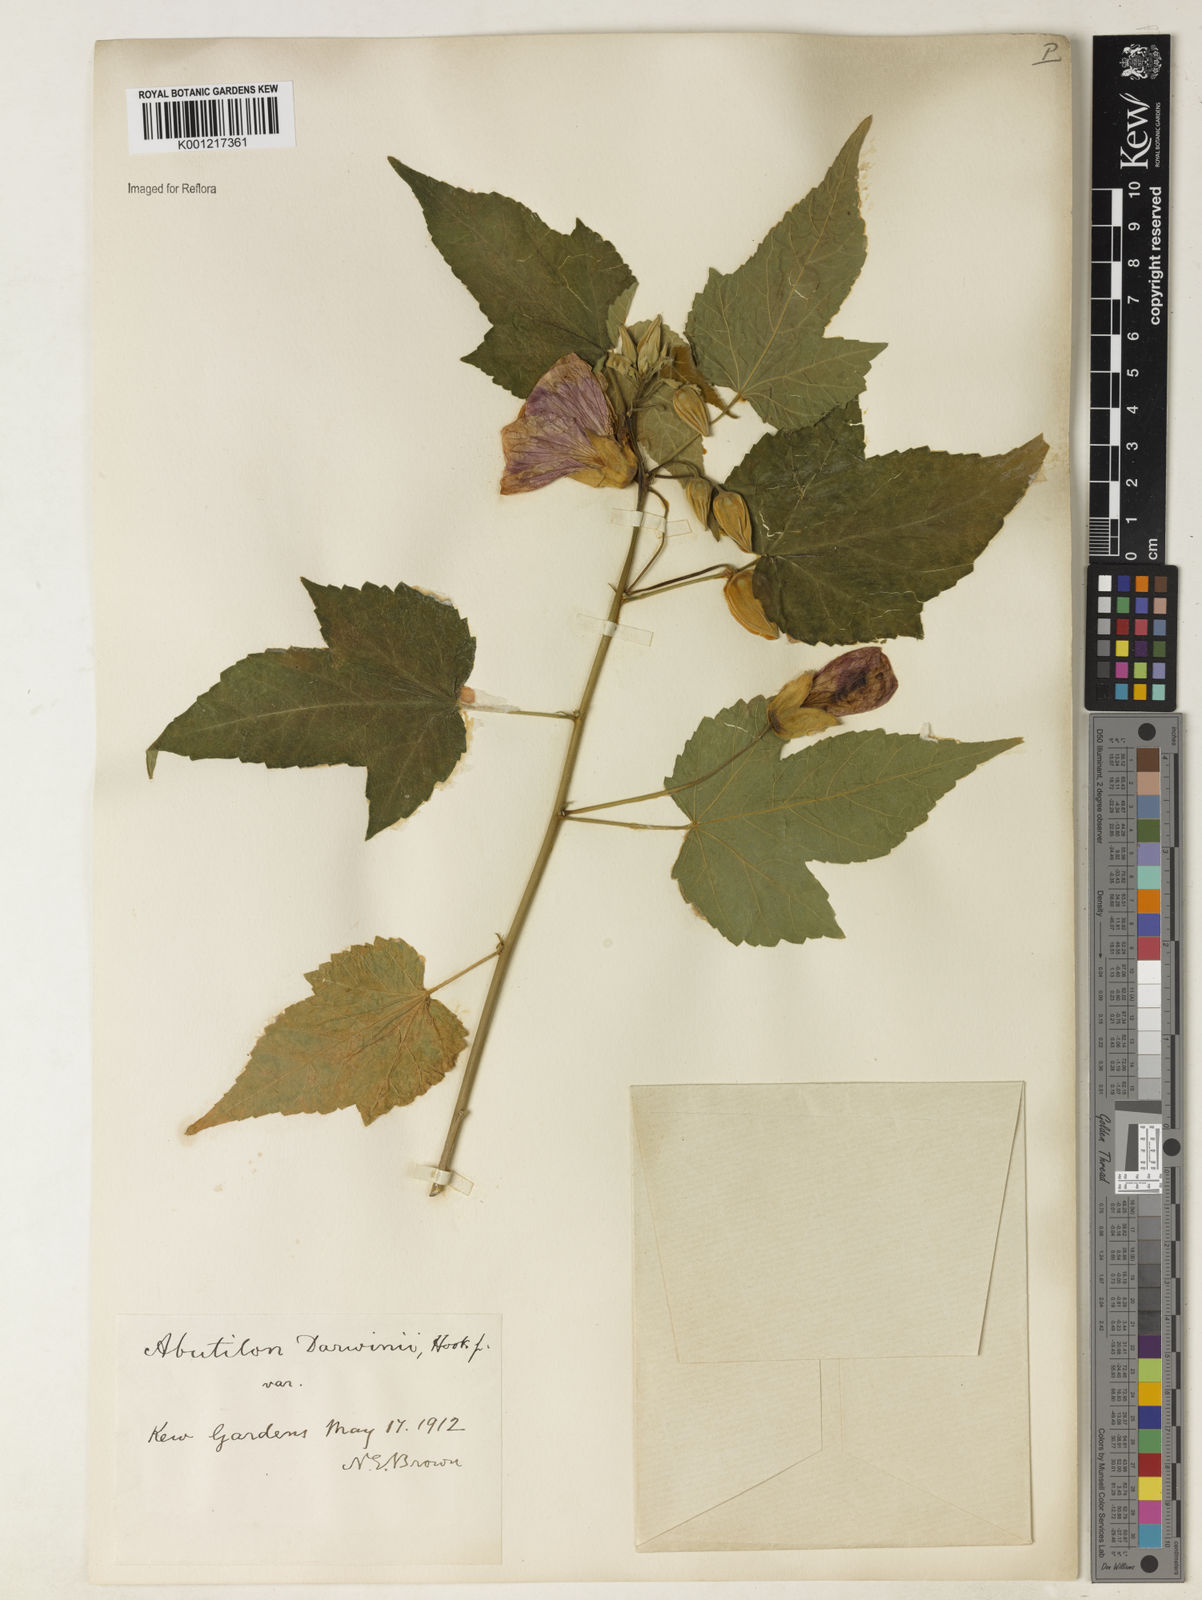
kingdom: Plantae
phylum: Tracheophyta
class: Magnoliopsida
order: Malvales
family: Malvaceae
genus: Callianthe
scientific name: Callianthe darwinii
